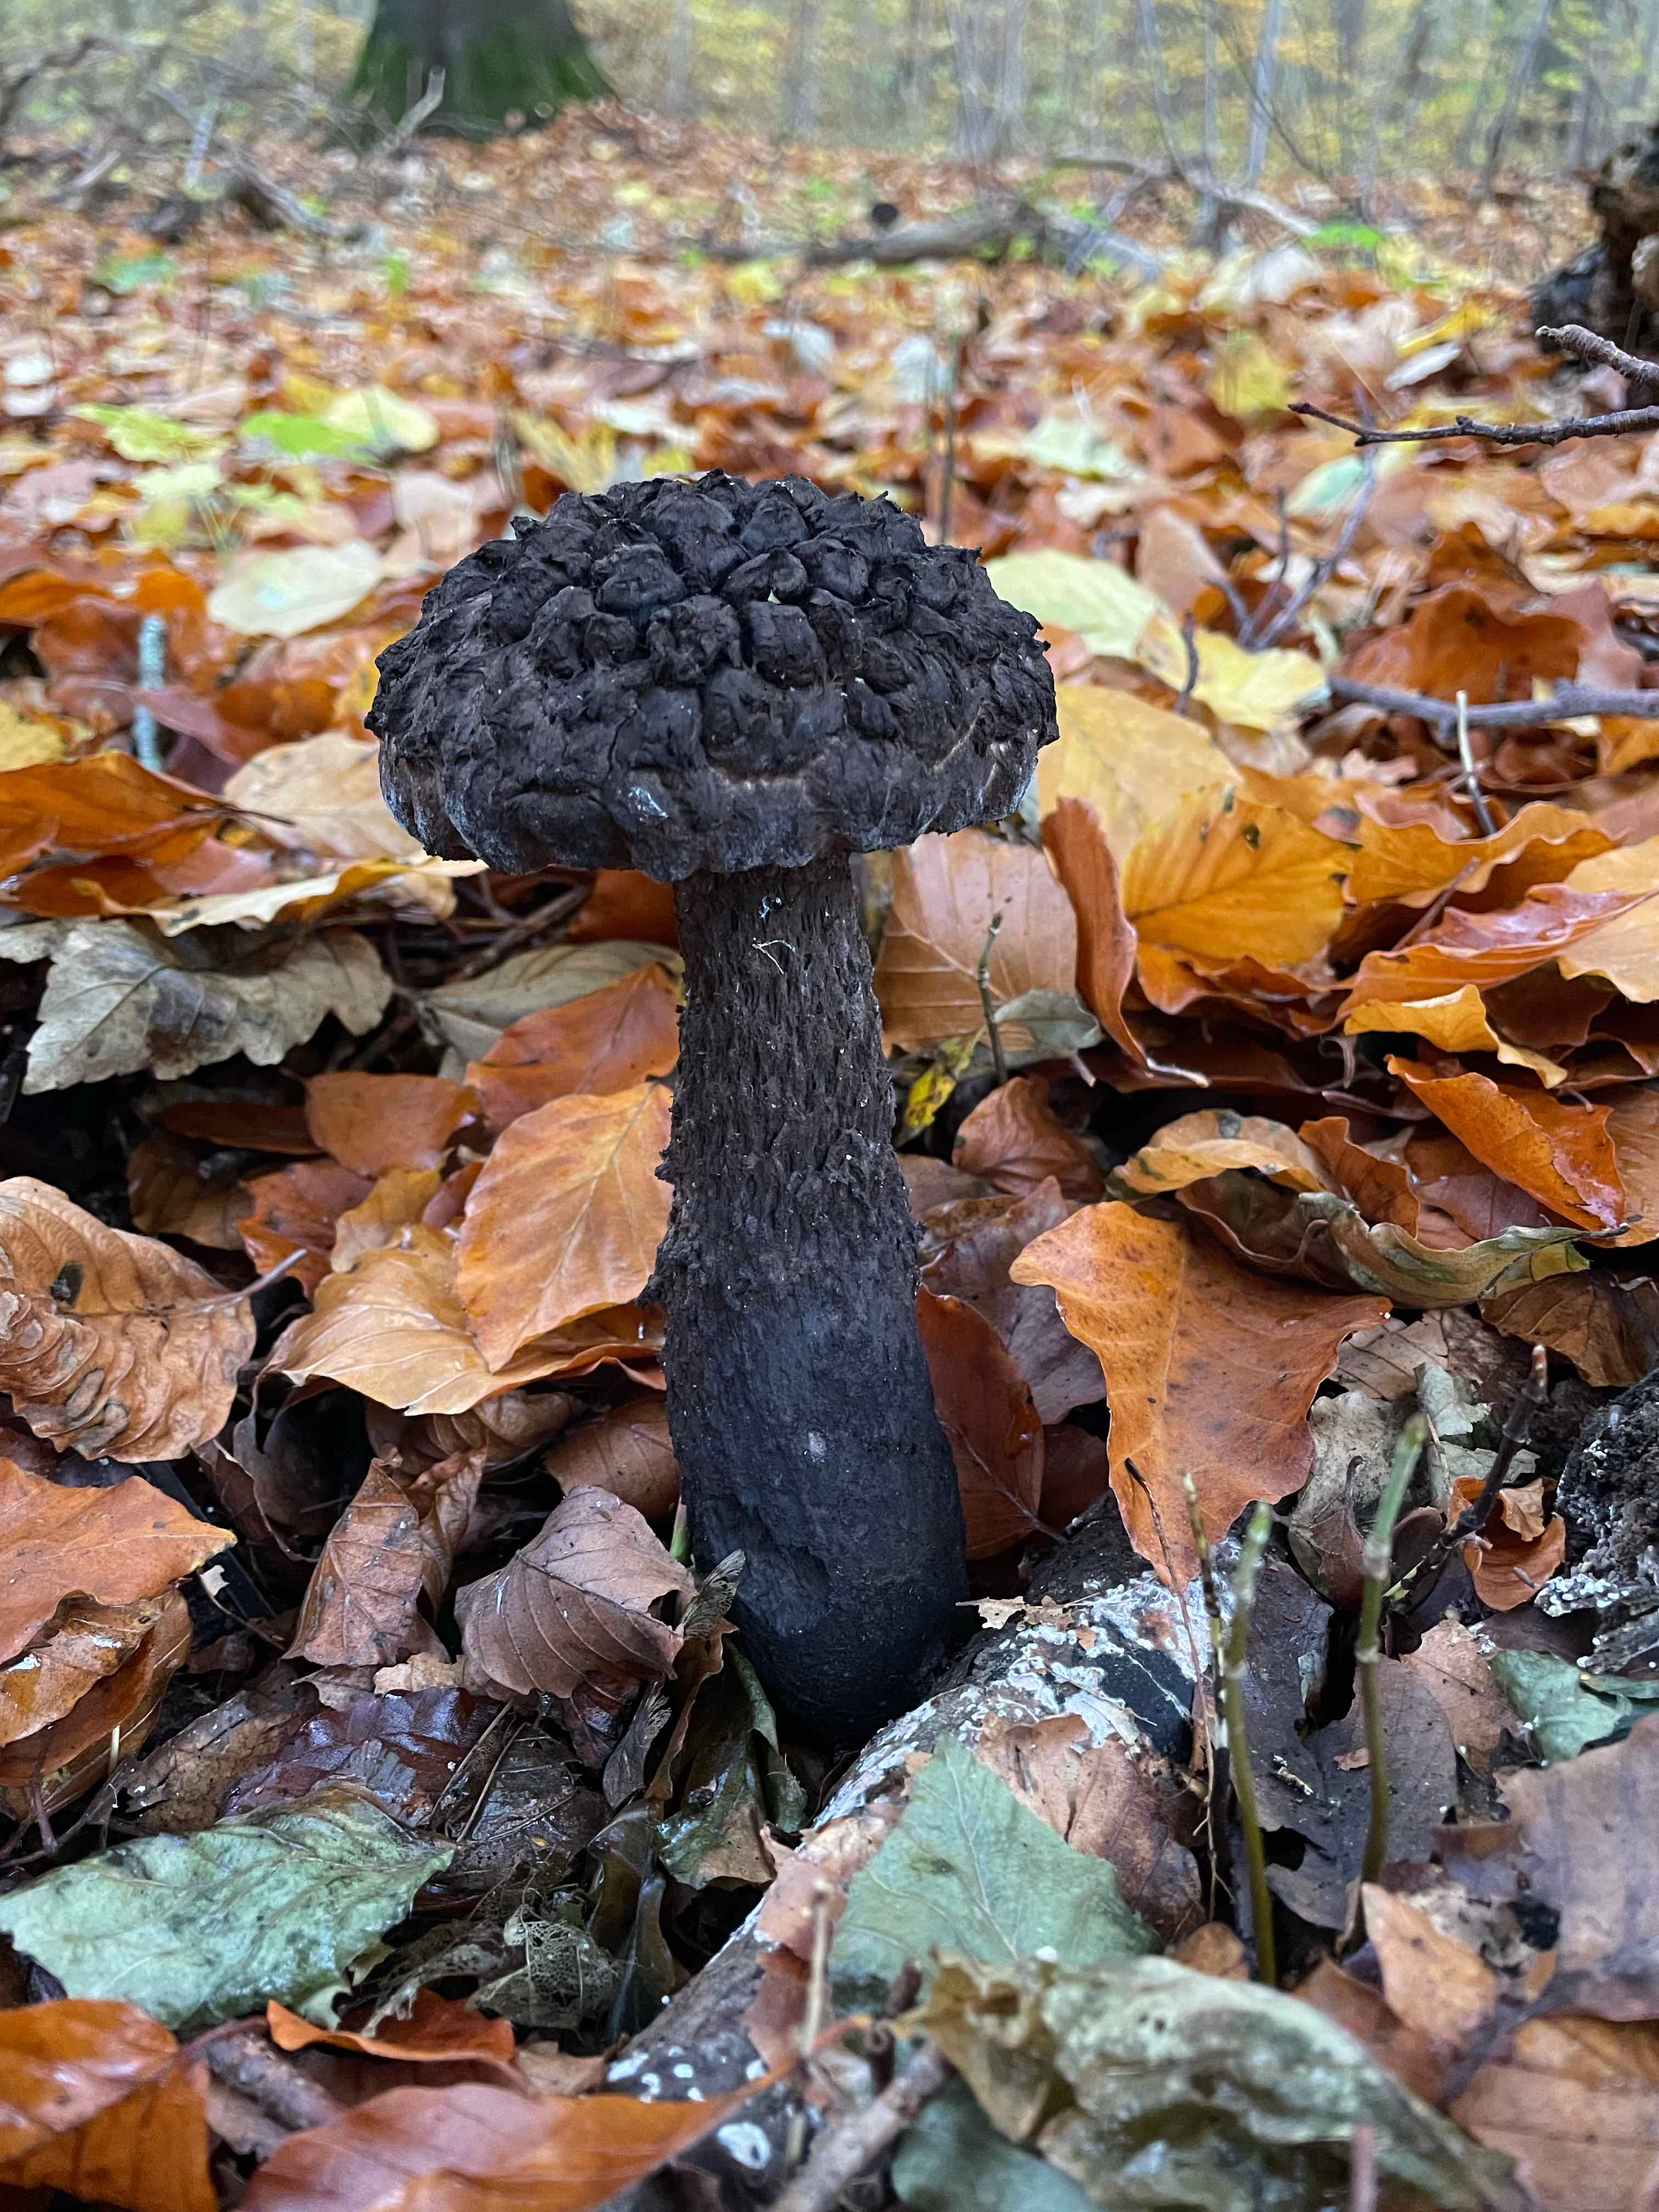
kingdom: Fungi
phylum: Basidiomycota
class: Agaricomycetes
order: Boletales
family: Boletaceae
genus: Strobilomyces
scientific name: Strobilomyces strobilaceus
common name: koglerørhat
